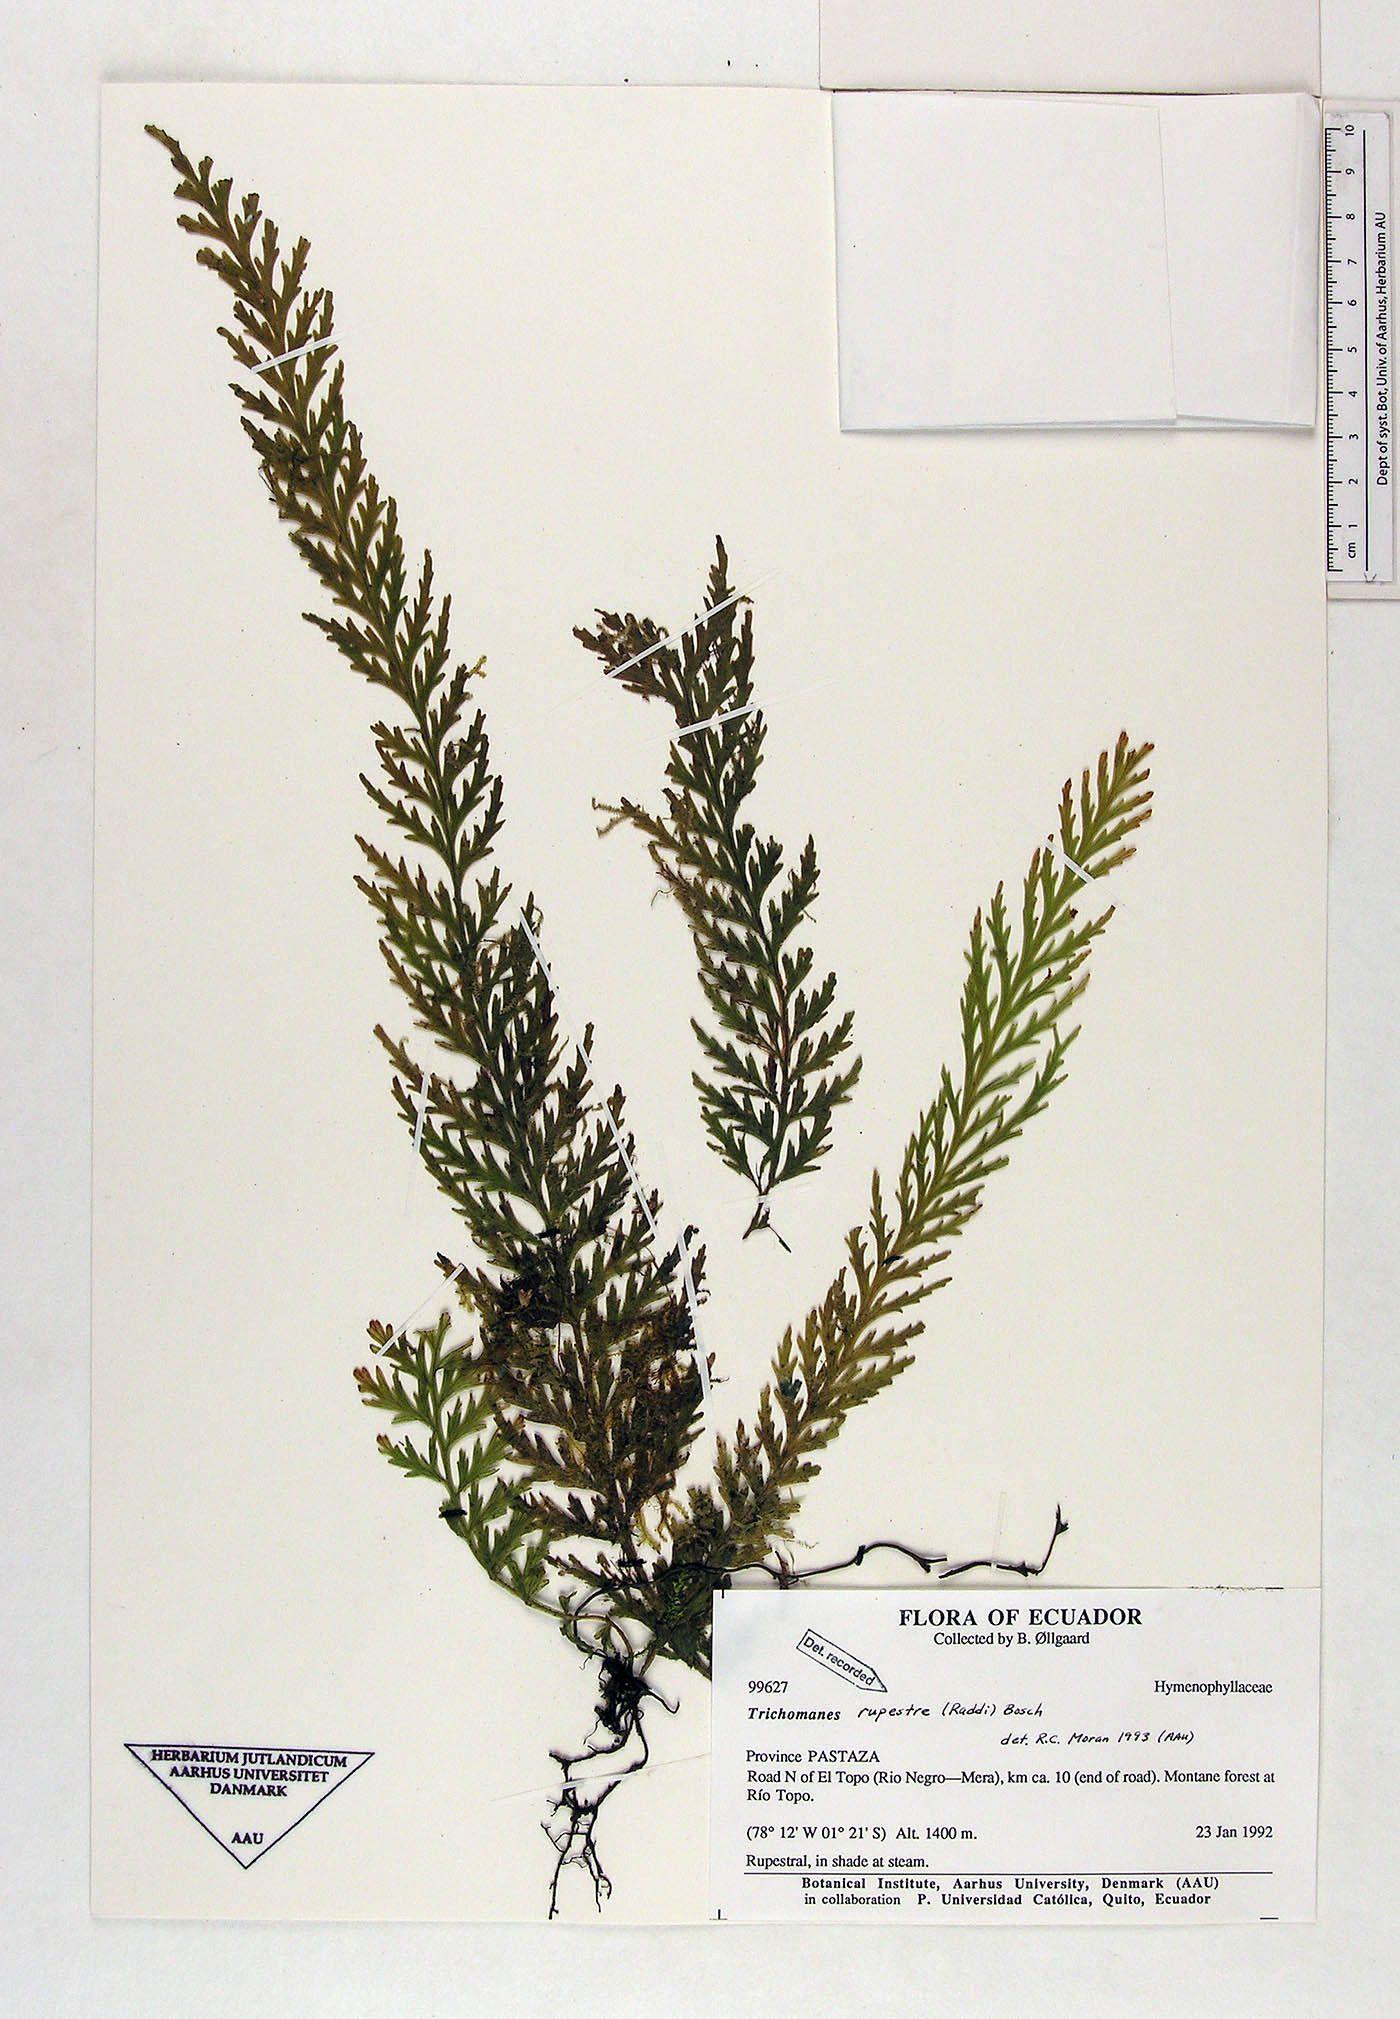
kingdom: Plantae
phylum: Tracheophyta
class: Polypodiopsida
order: Hymenophyllales
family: Hymenophyllaceae
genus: Vandenboschia
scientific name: Vandenboschia rupestris
